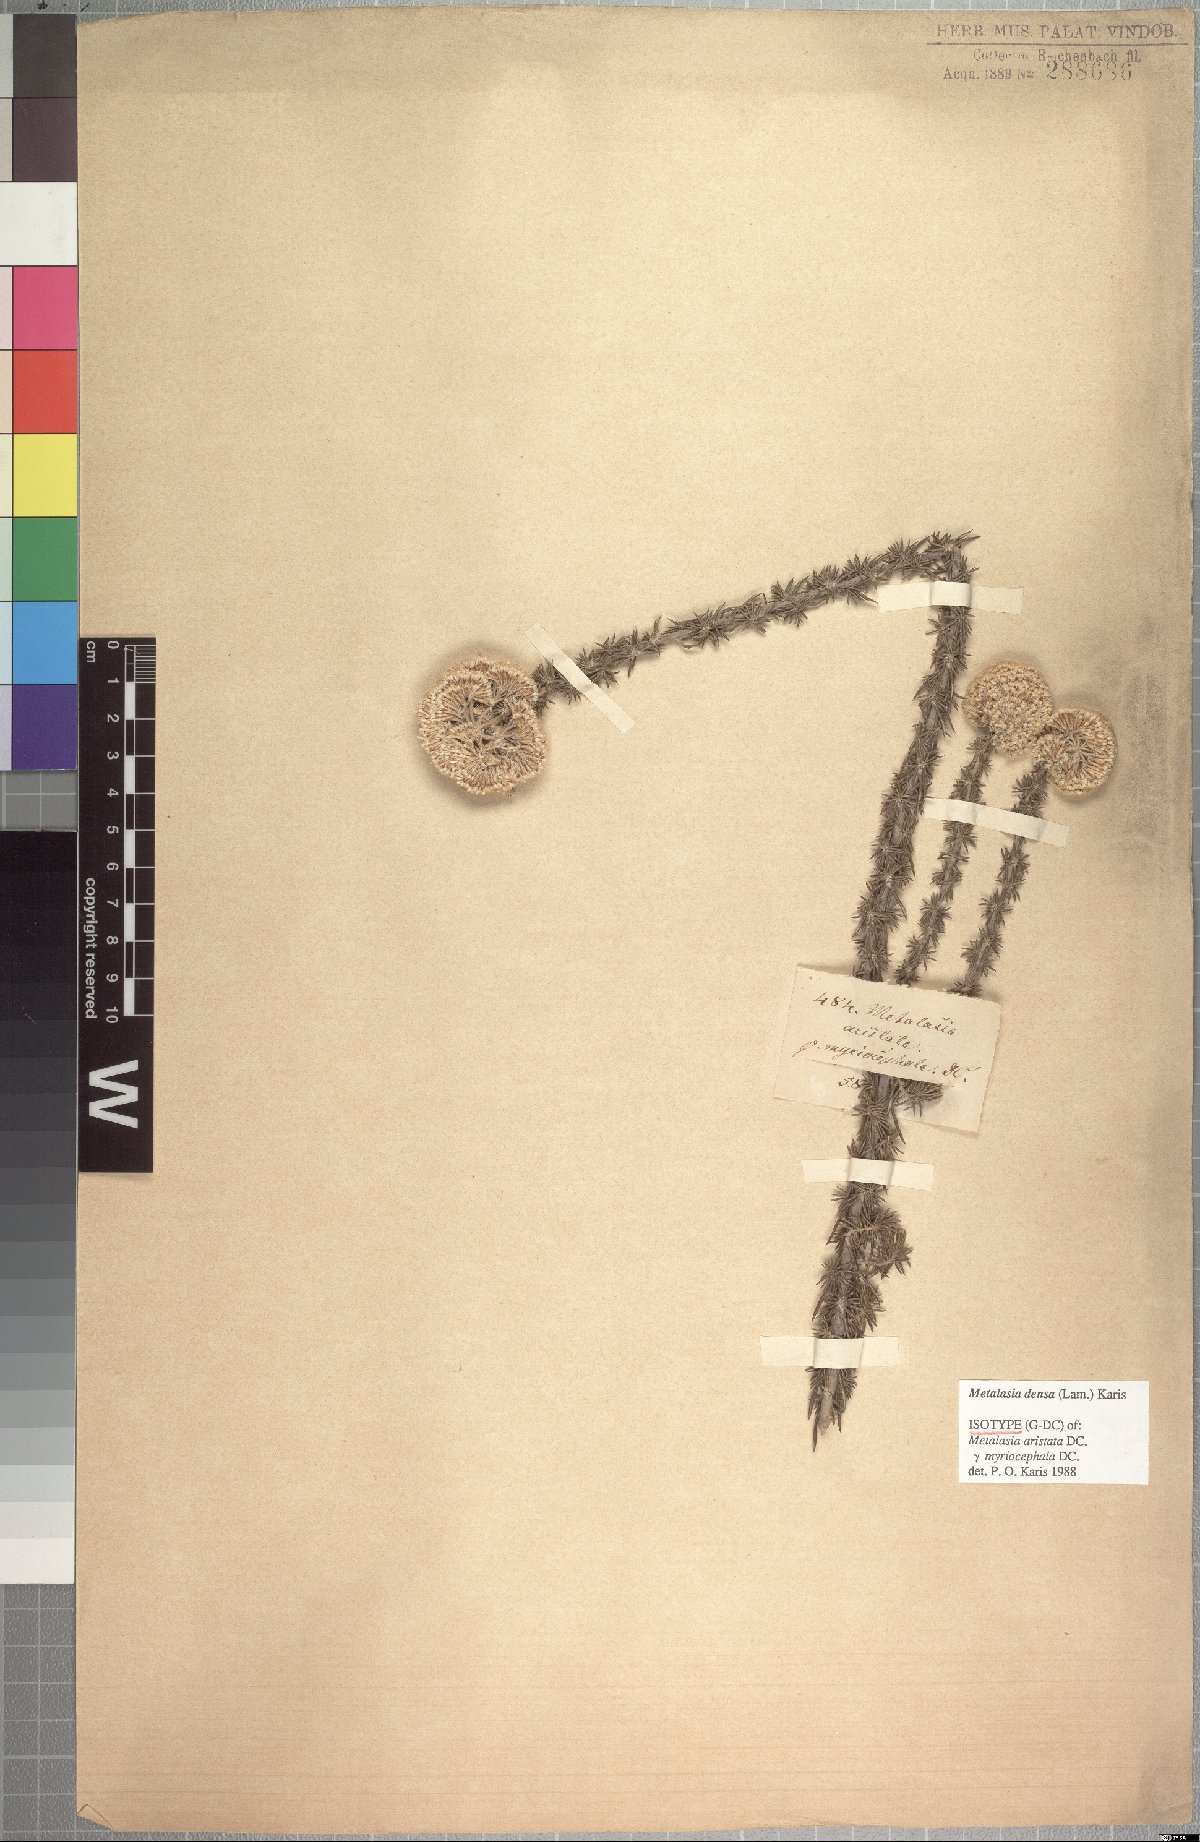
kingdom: Plantae
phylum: Tracheophyta
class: Magnoliopsida
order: Asterales
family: Asteraceae
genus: Metalasia
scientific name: Metalasia densa
